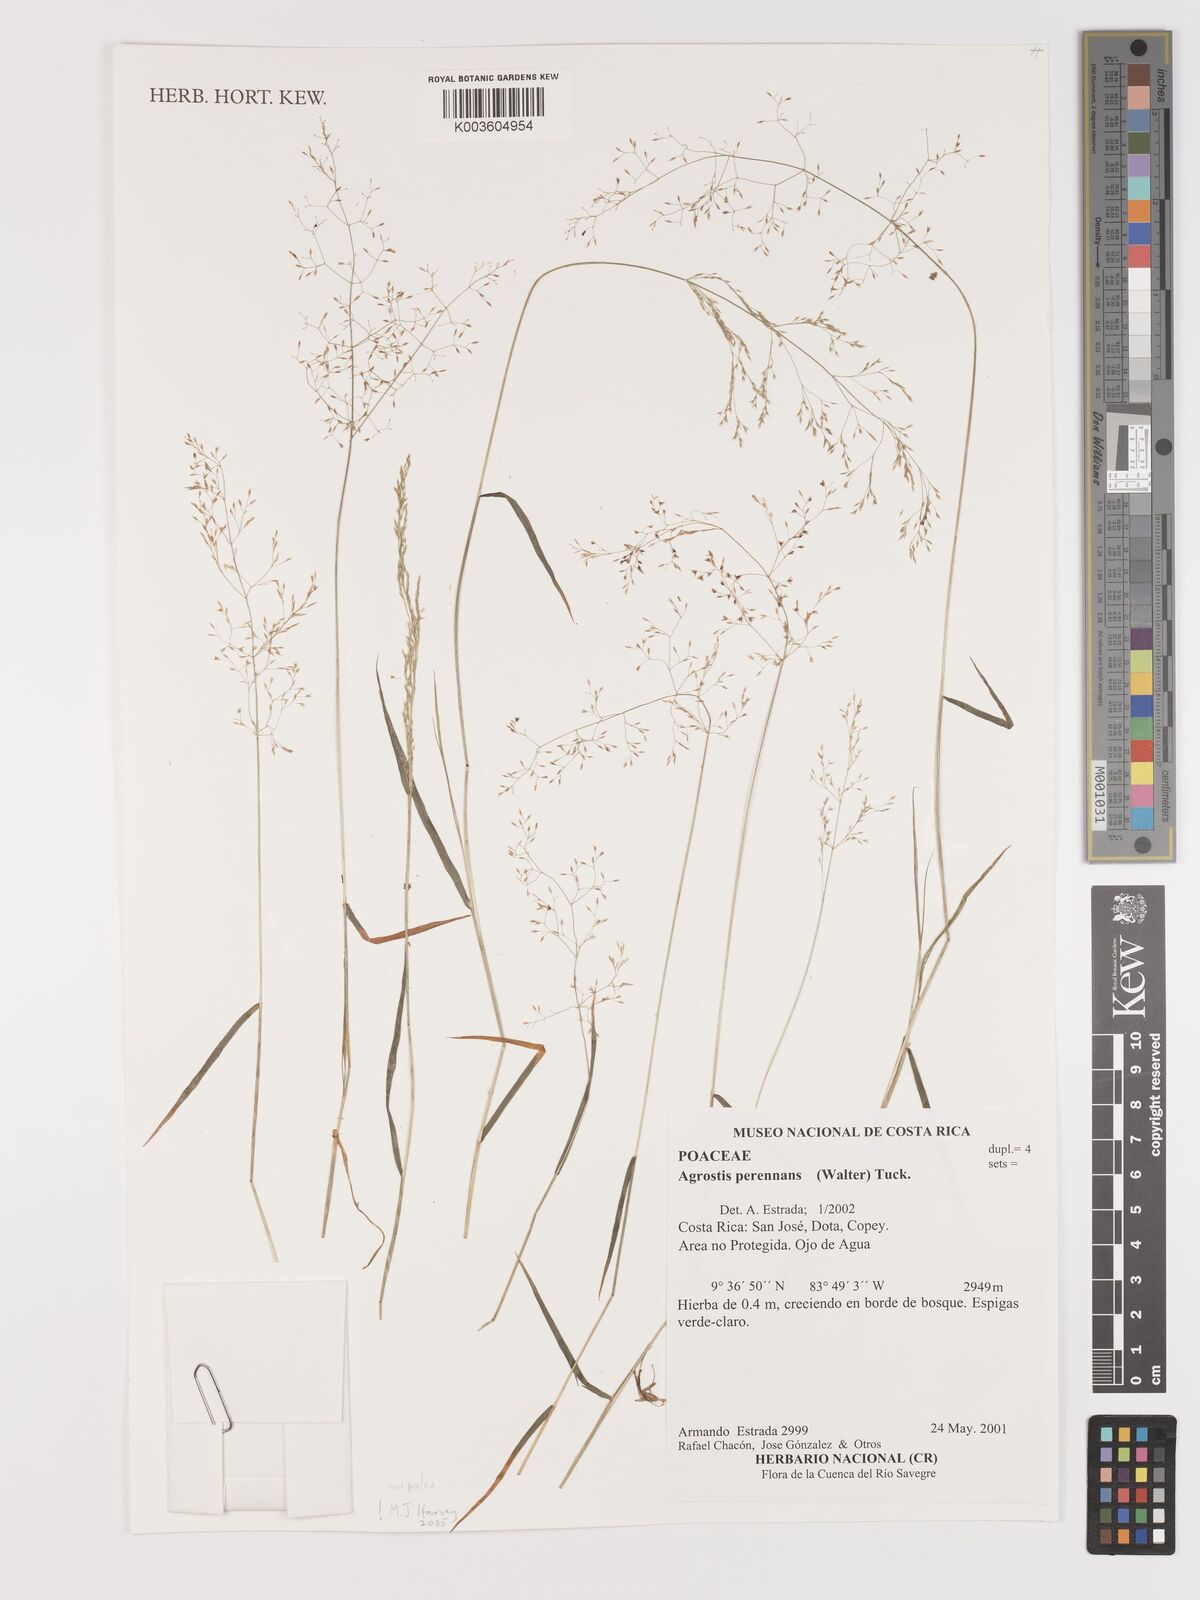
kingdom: Plantae
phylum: Tracheophyta
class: Liliopsida
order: Poales
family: Poaceae
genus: Agrostis
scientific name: Agrostis perennans
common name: Autumn bent
